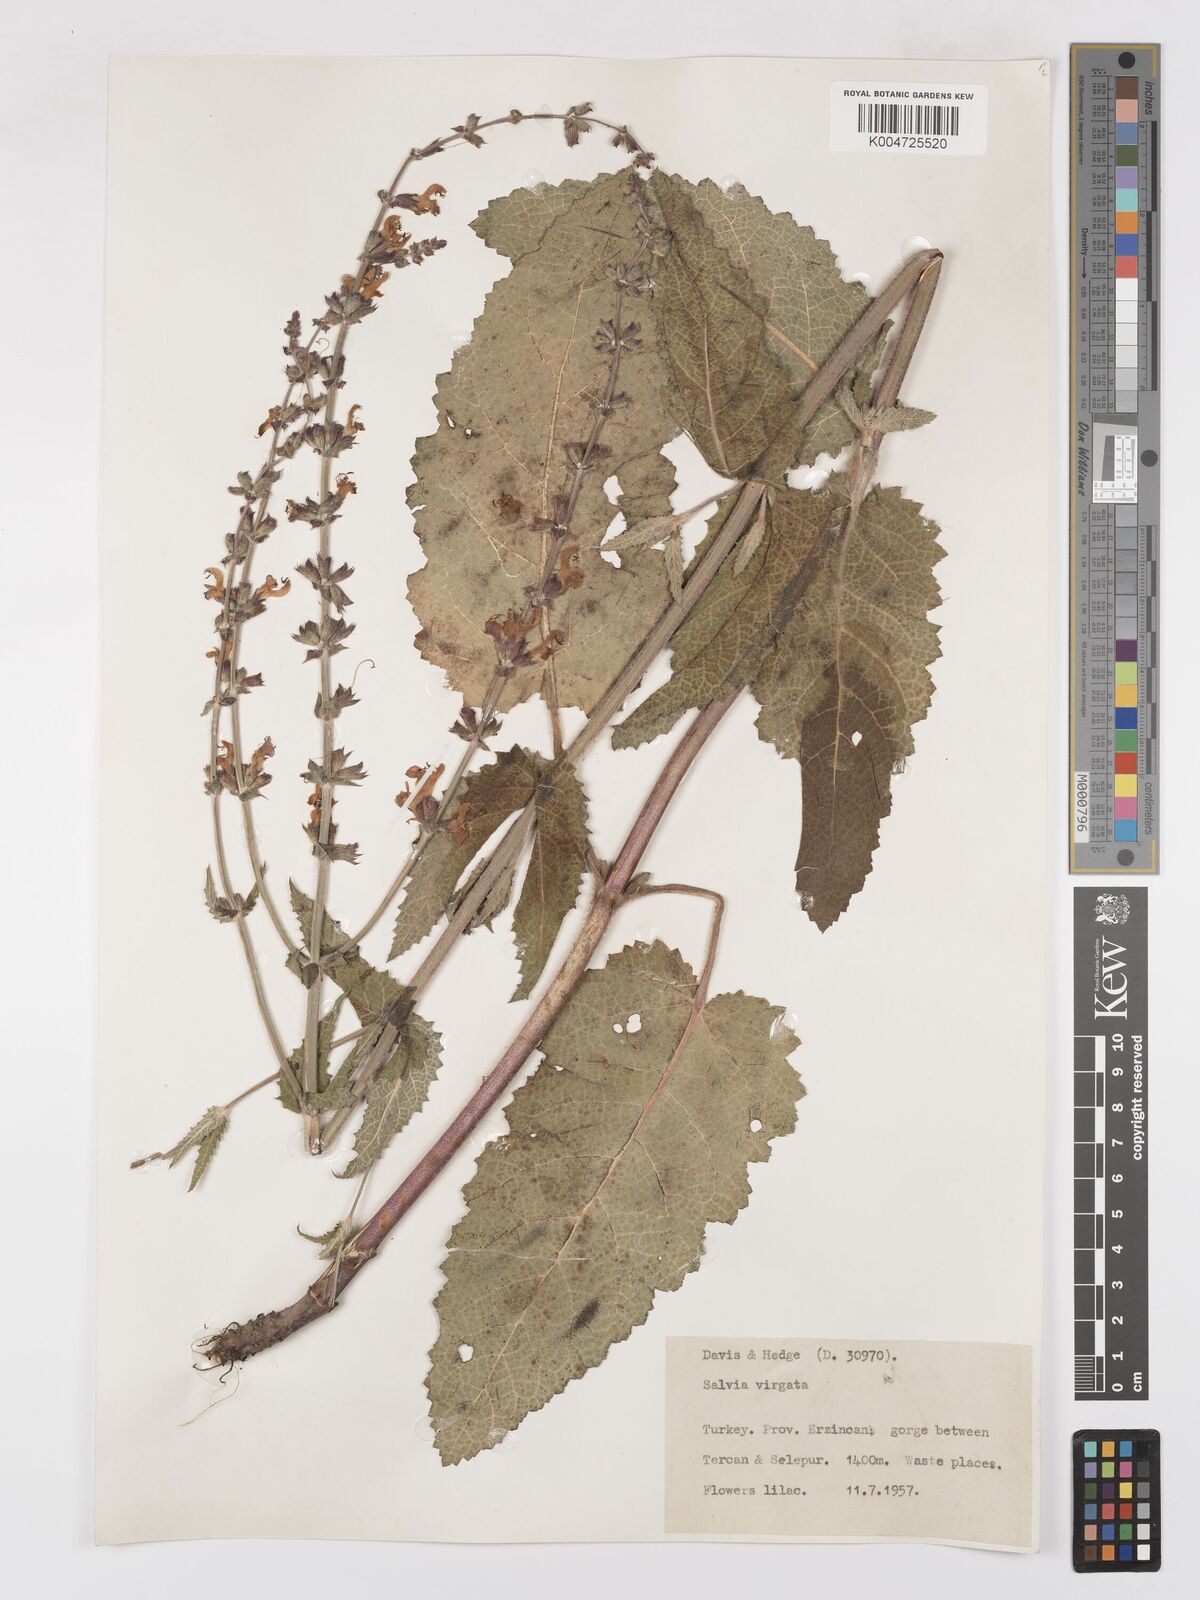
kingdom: Plantae
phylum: Tracheophyta
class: Magnoliopsida
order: Lamiales
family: Lamiaceae
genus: Salvia
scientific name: Salvia
